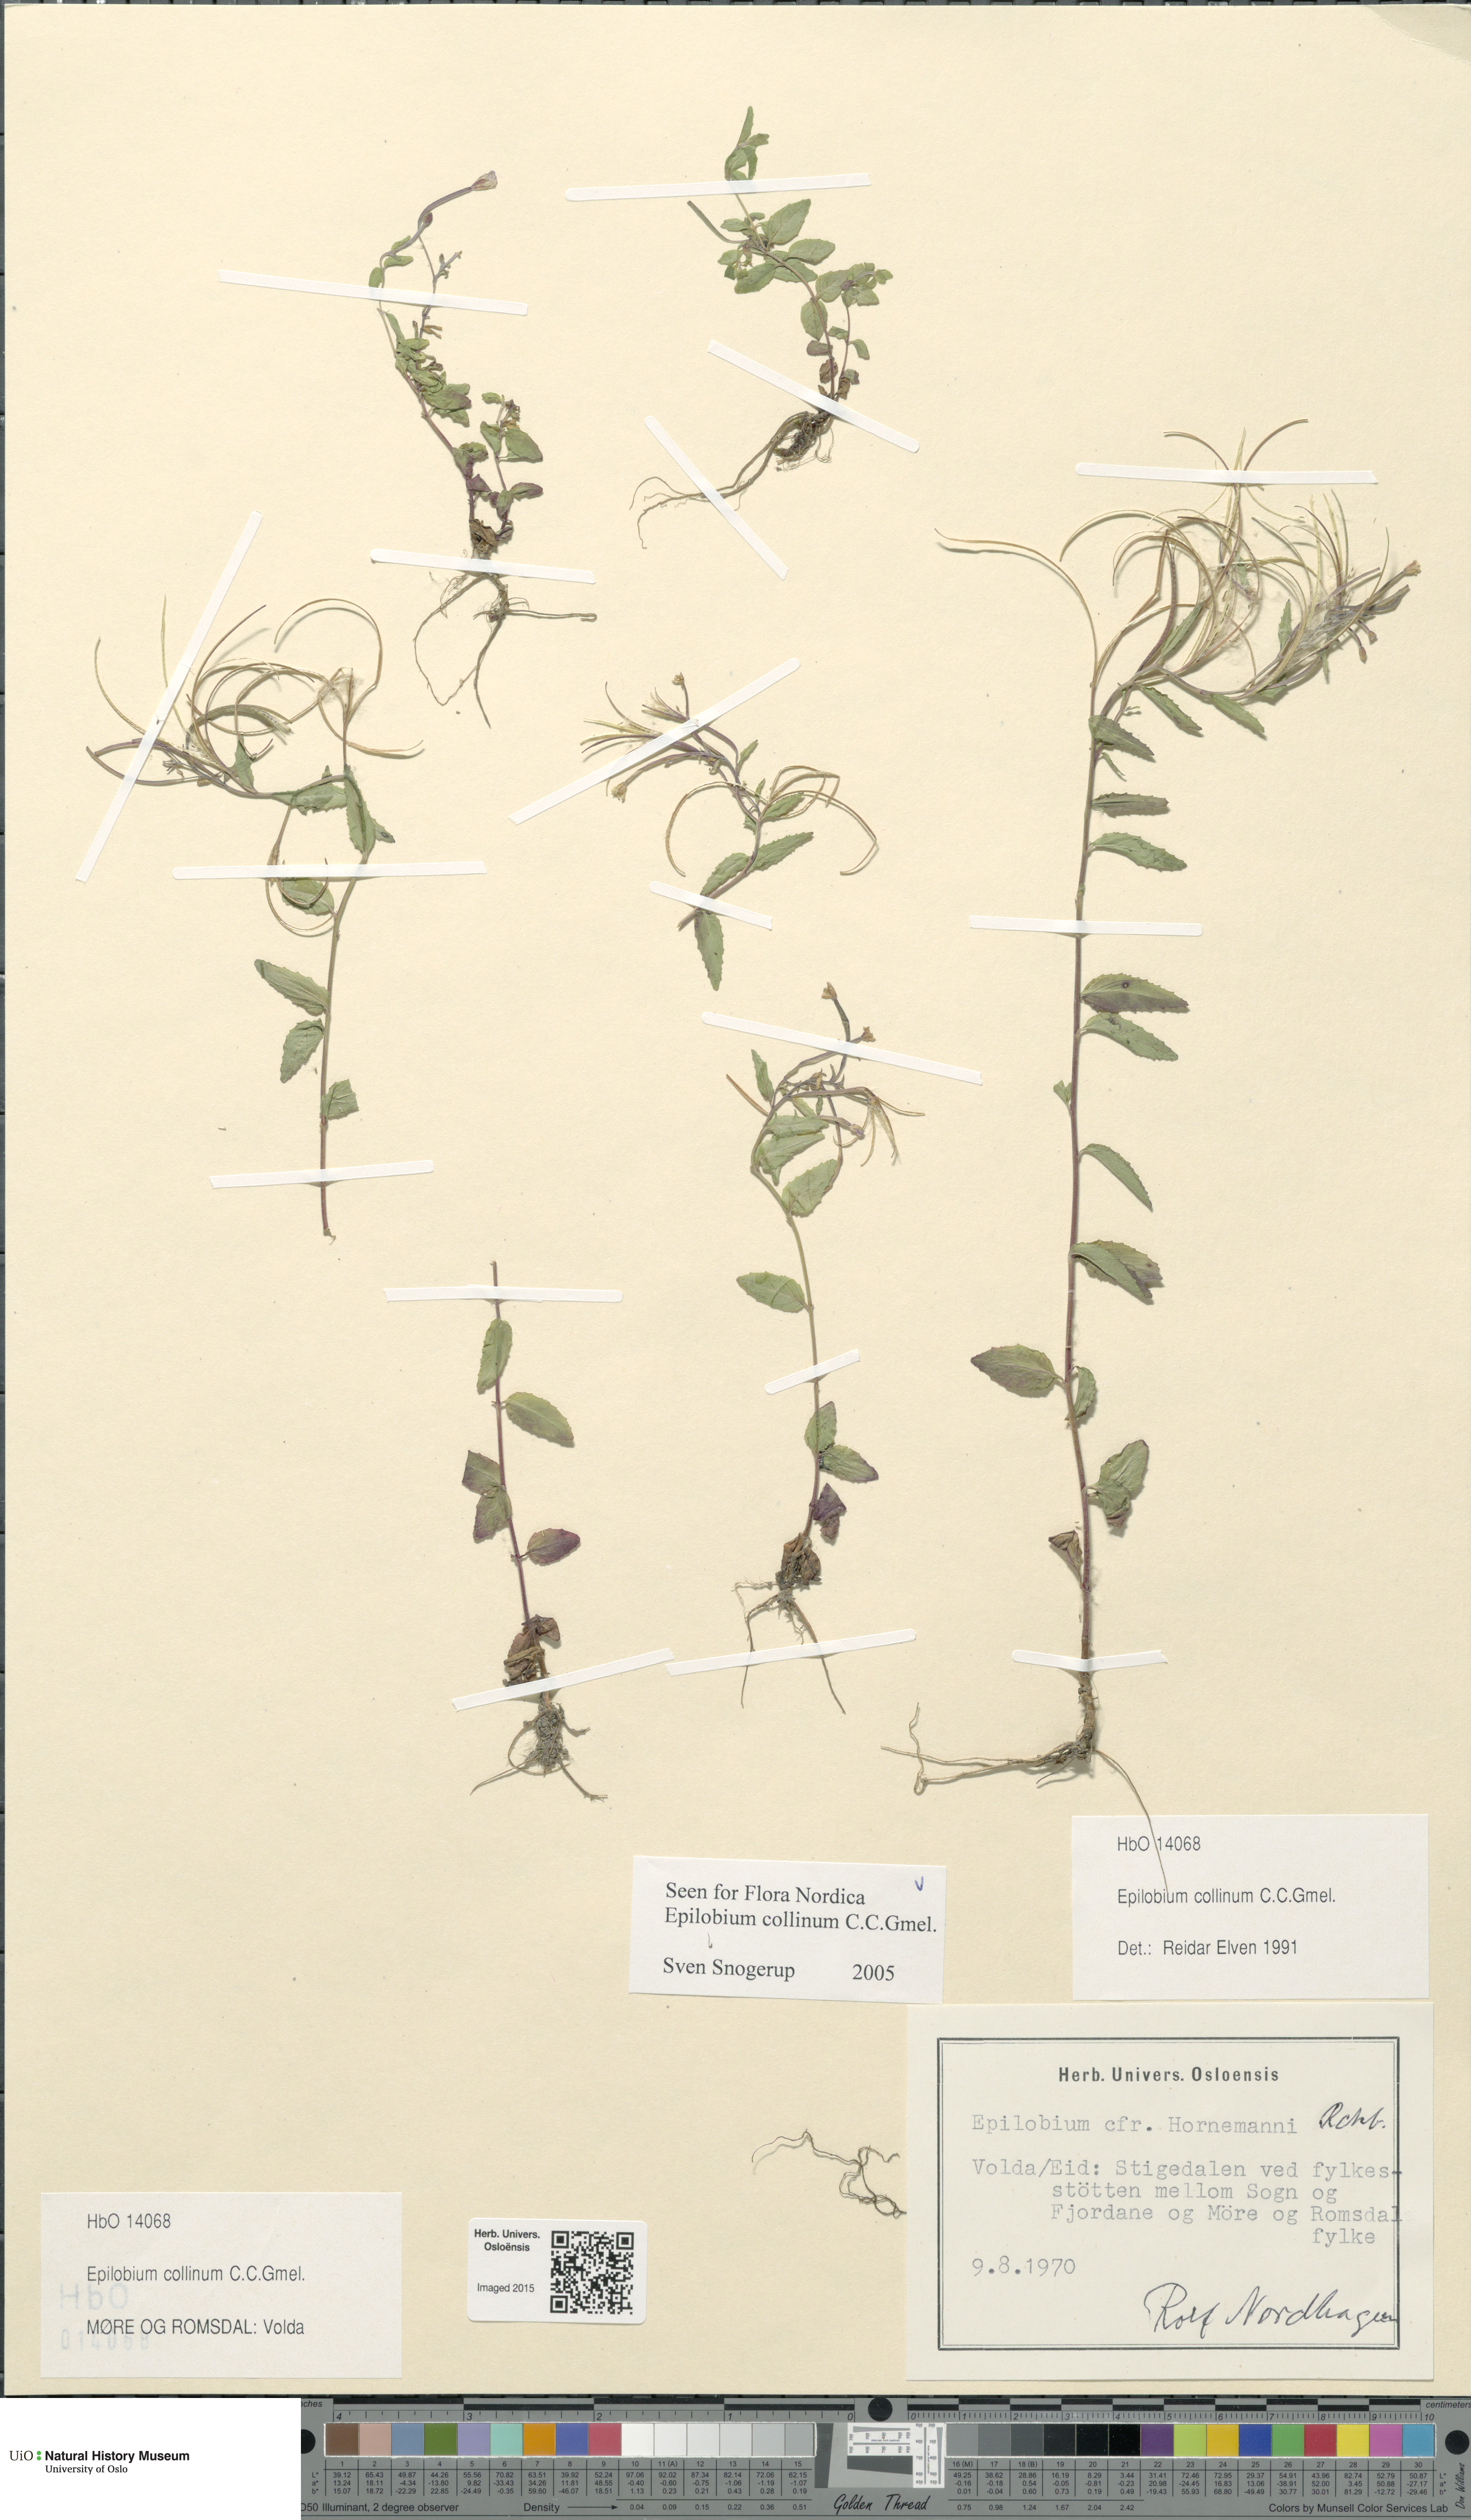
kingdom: Plantae
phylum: Tracheophyta
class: Magnoliopsida
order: Myrtales
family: Onagraceae
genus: Epilobium
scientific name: Epilobium collinum
